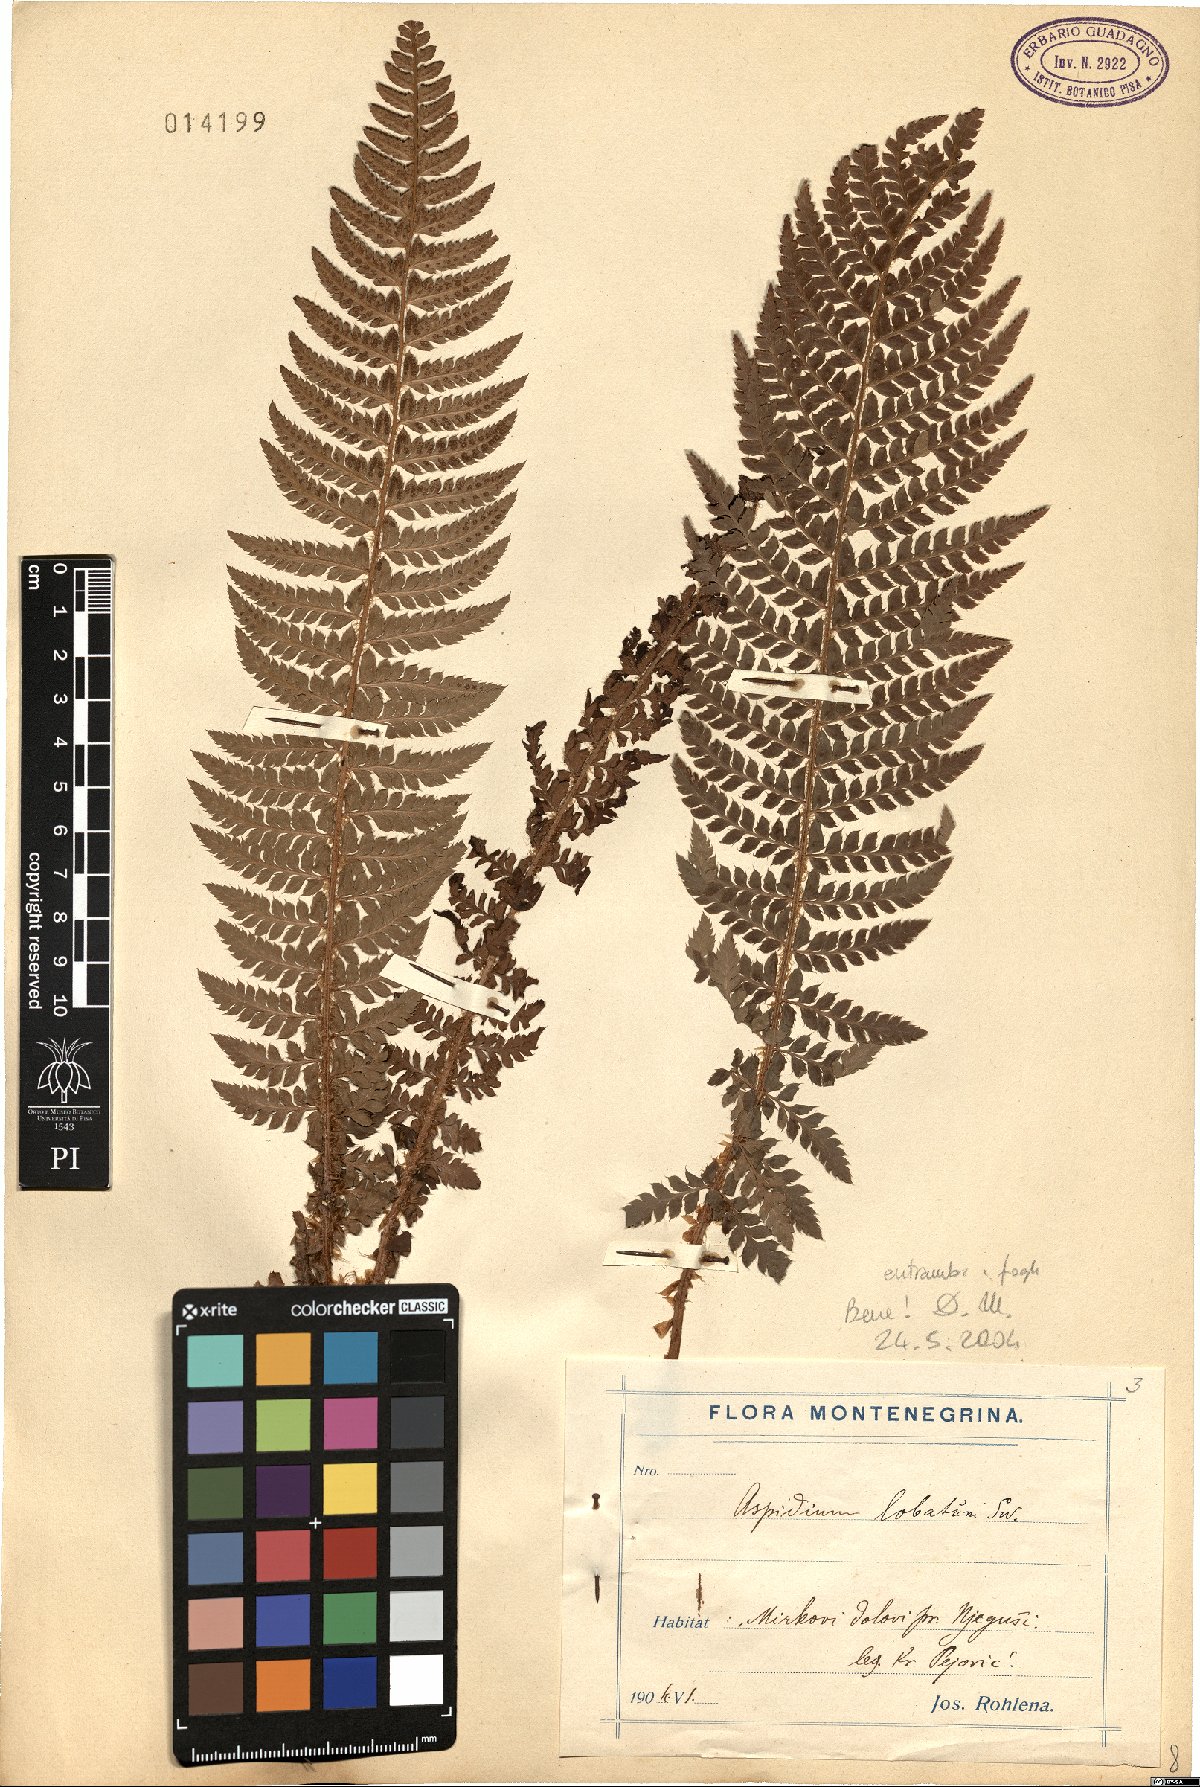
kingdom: Plantae
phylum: Tracheophyta
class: Polypodiopsida
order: Polypodiales
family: Dryopteridaceae
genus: Polystichum
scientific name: Polystichum aculeatum
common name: Hard shield-fern
